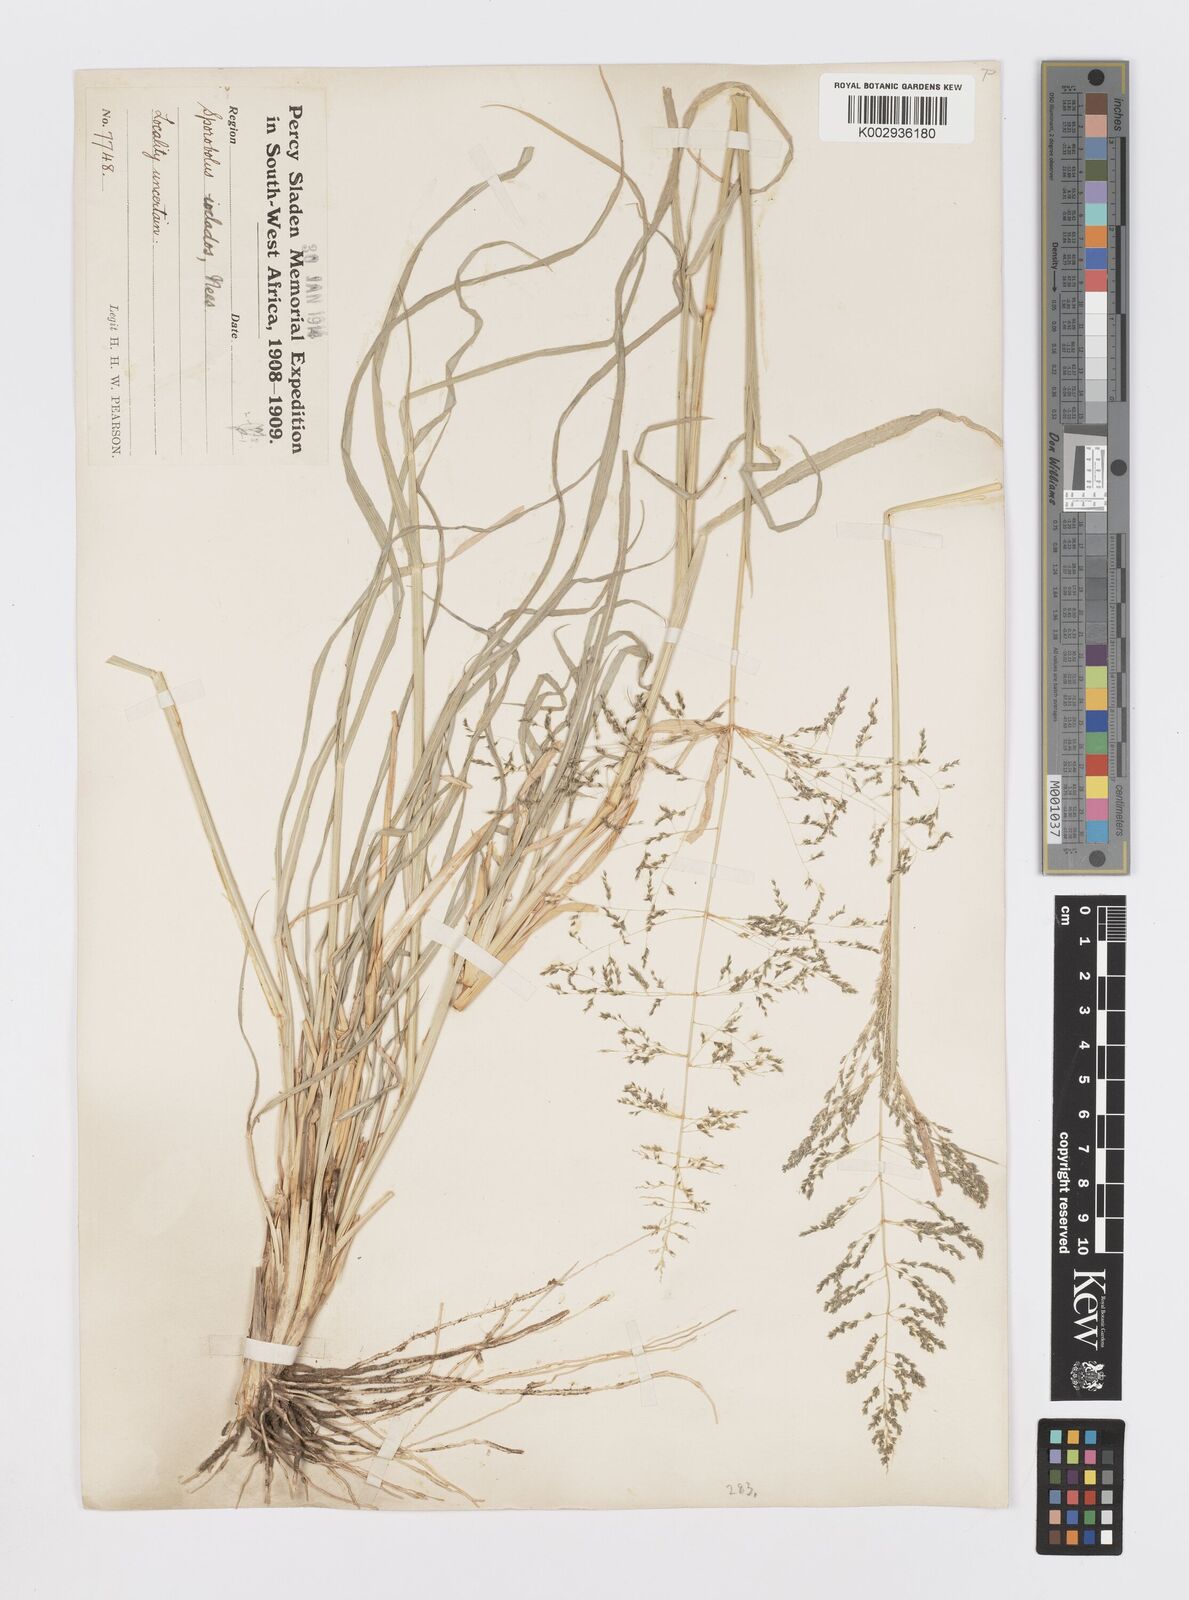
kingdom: Plantae
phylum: Tracheophyta
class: Liliopsida
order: Poales
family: Poaceae
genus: Sporobolus
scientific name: Sporobolus ioclados
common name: Pan dropseed
